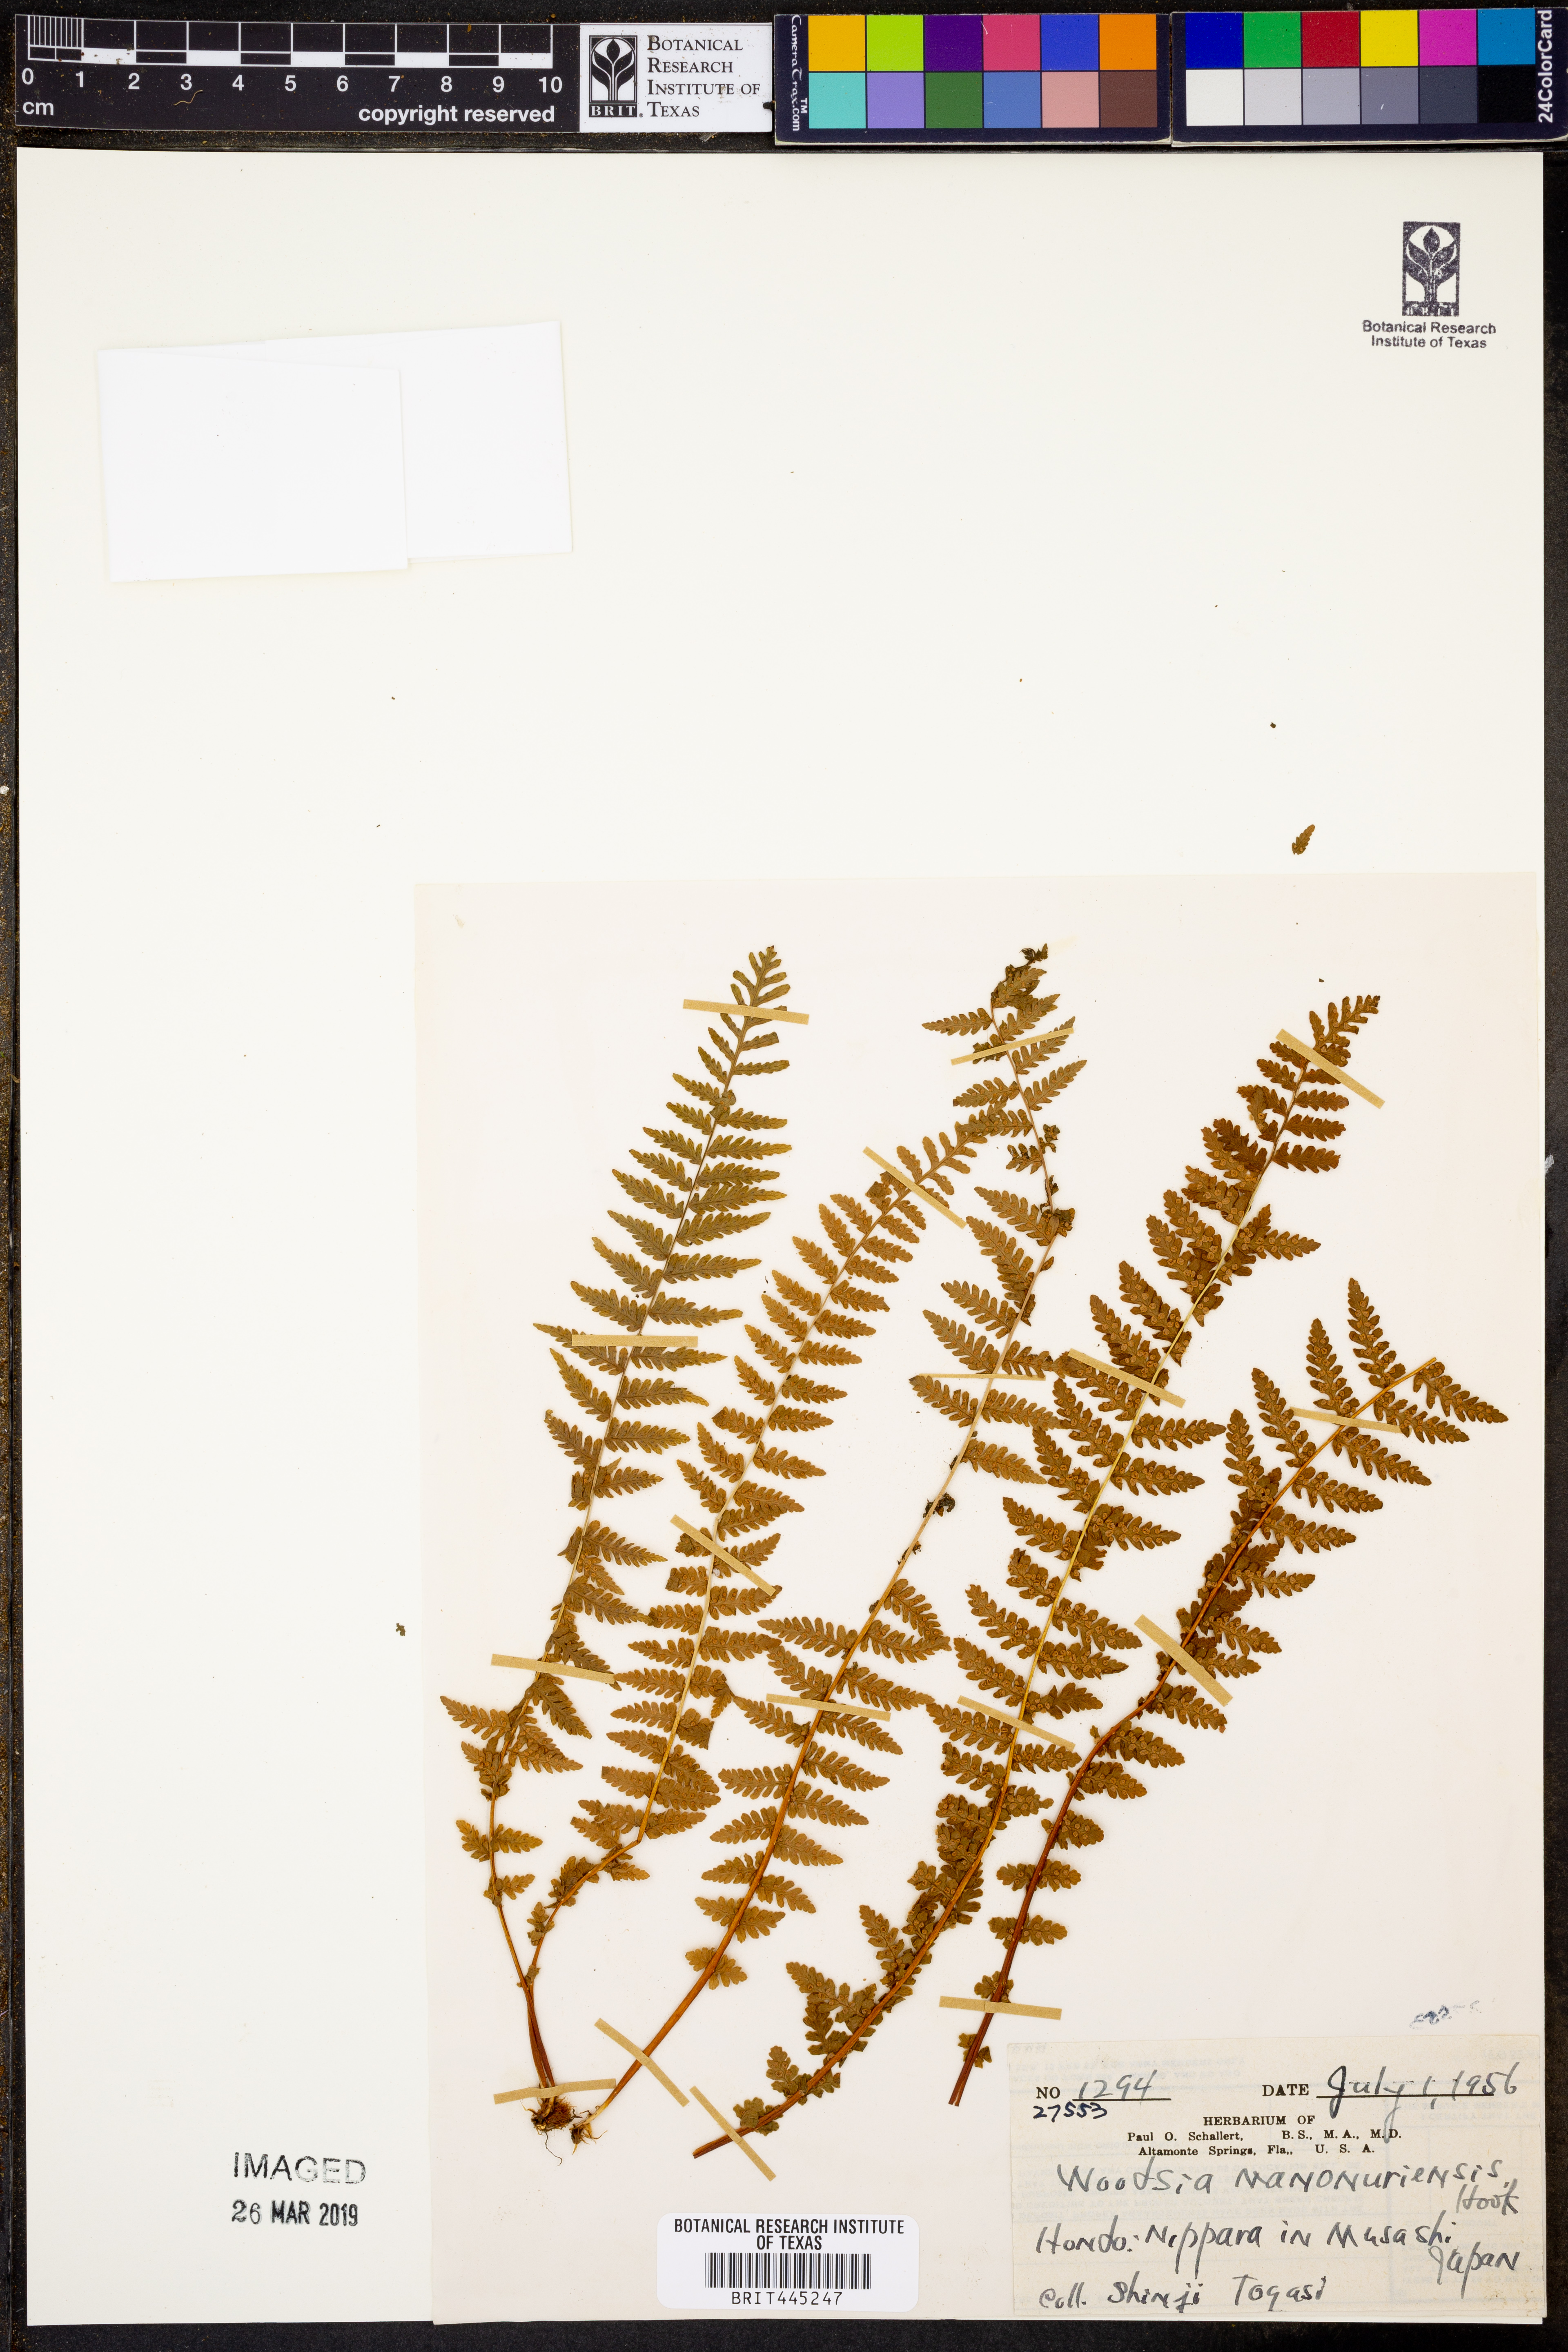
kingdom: Plantae
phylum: Tracheophyta
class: Polypodiopsida
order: Polypodiales
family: Woodsiaceae
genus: Physematium
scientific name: Physematium manchuriense
